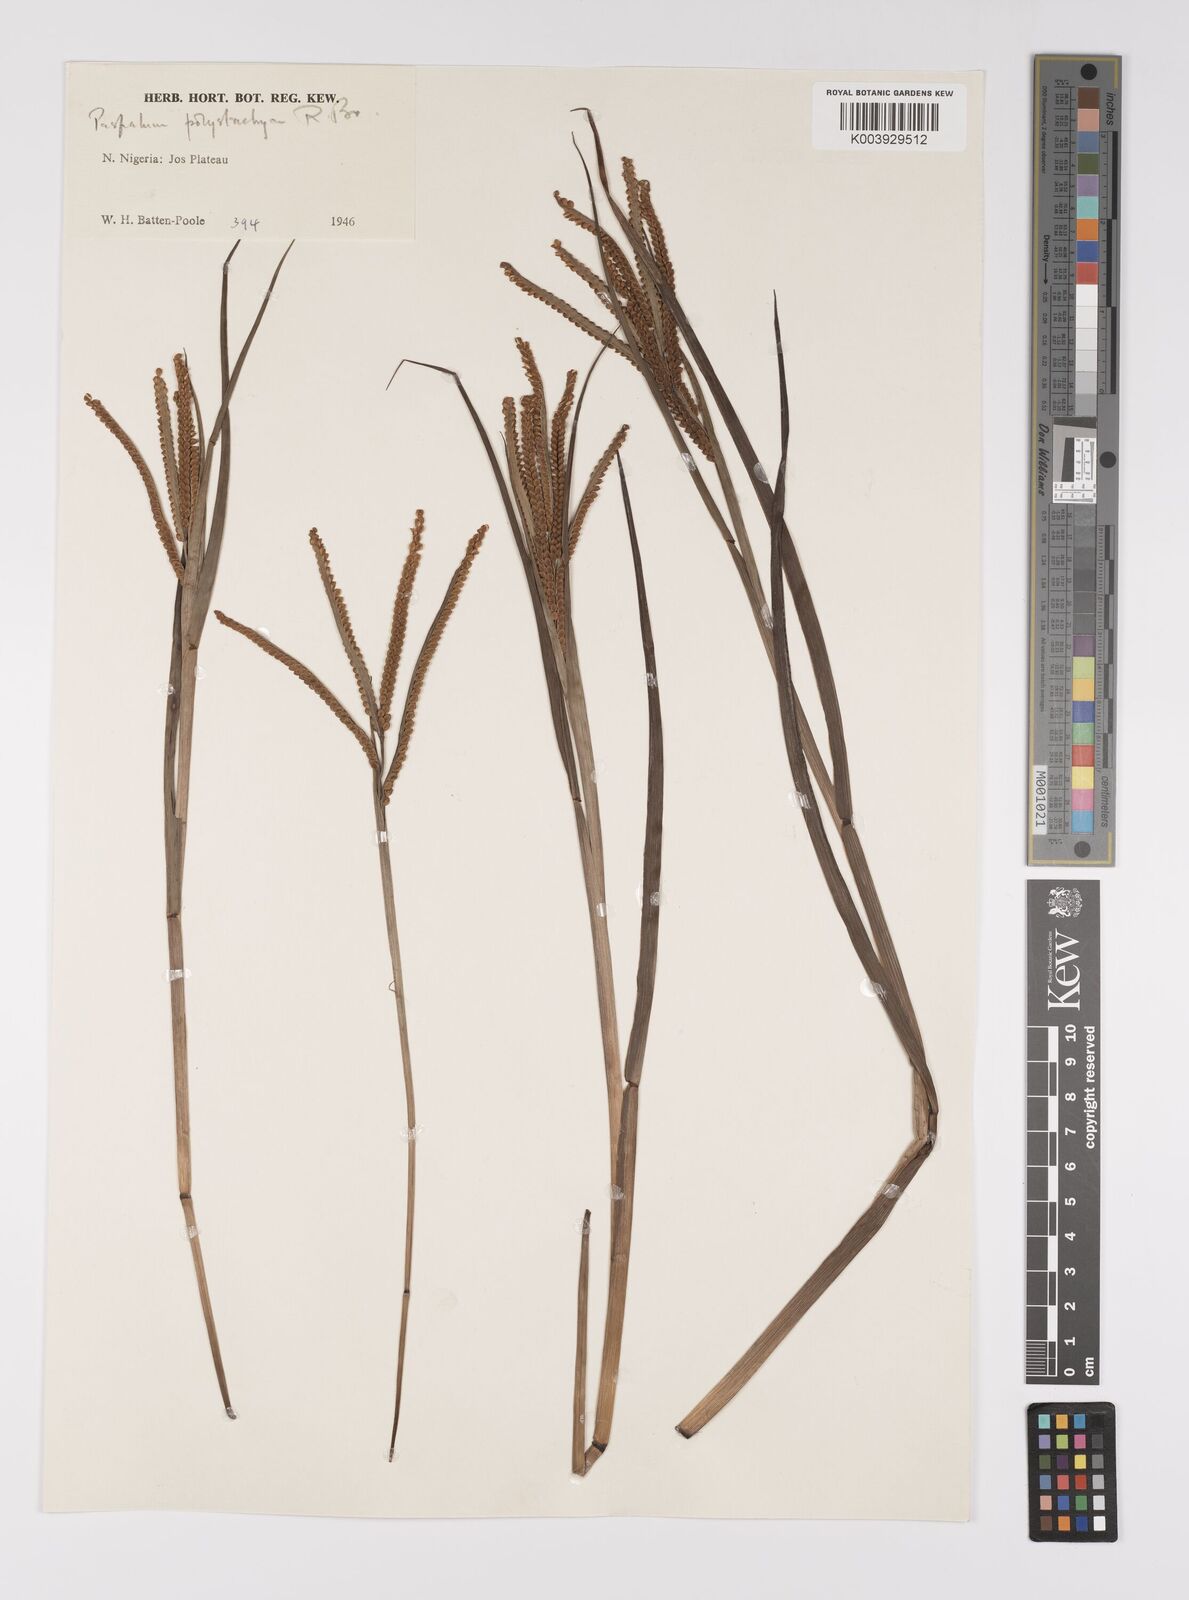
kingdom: Plantae
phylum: Tracheophyta
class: Liliopsida
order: Poales
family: Poaceae
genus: Paspalum
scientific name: Paspalum scrobiculatum
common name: Kodo millet
